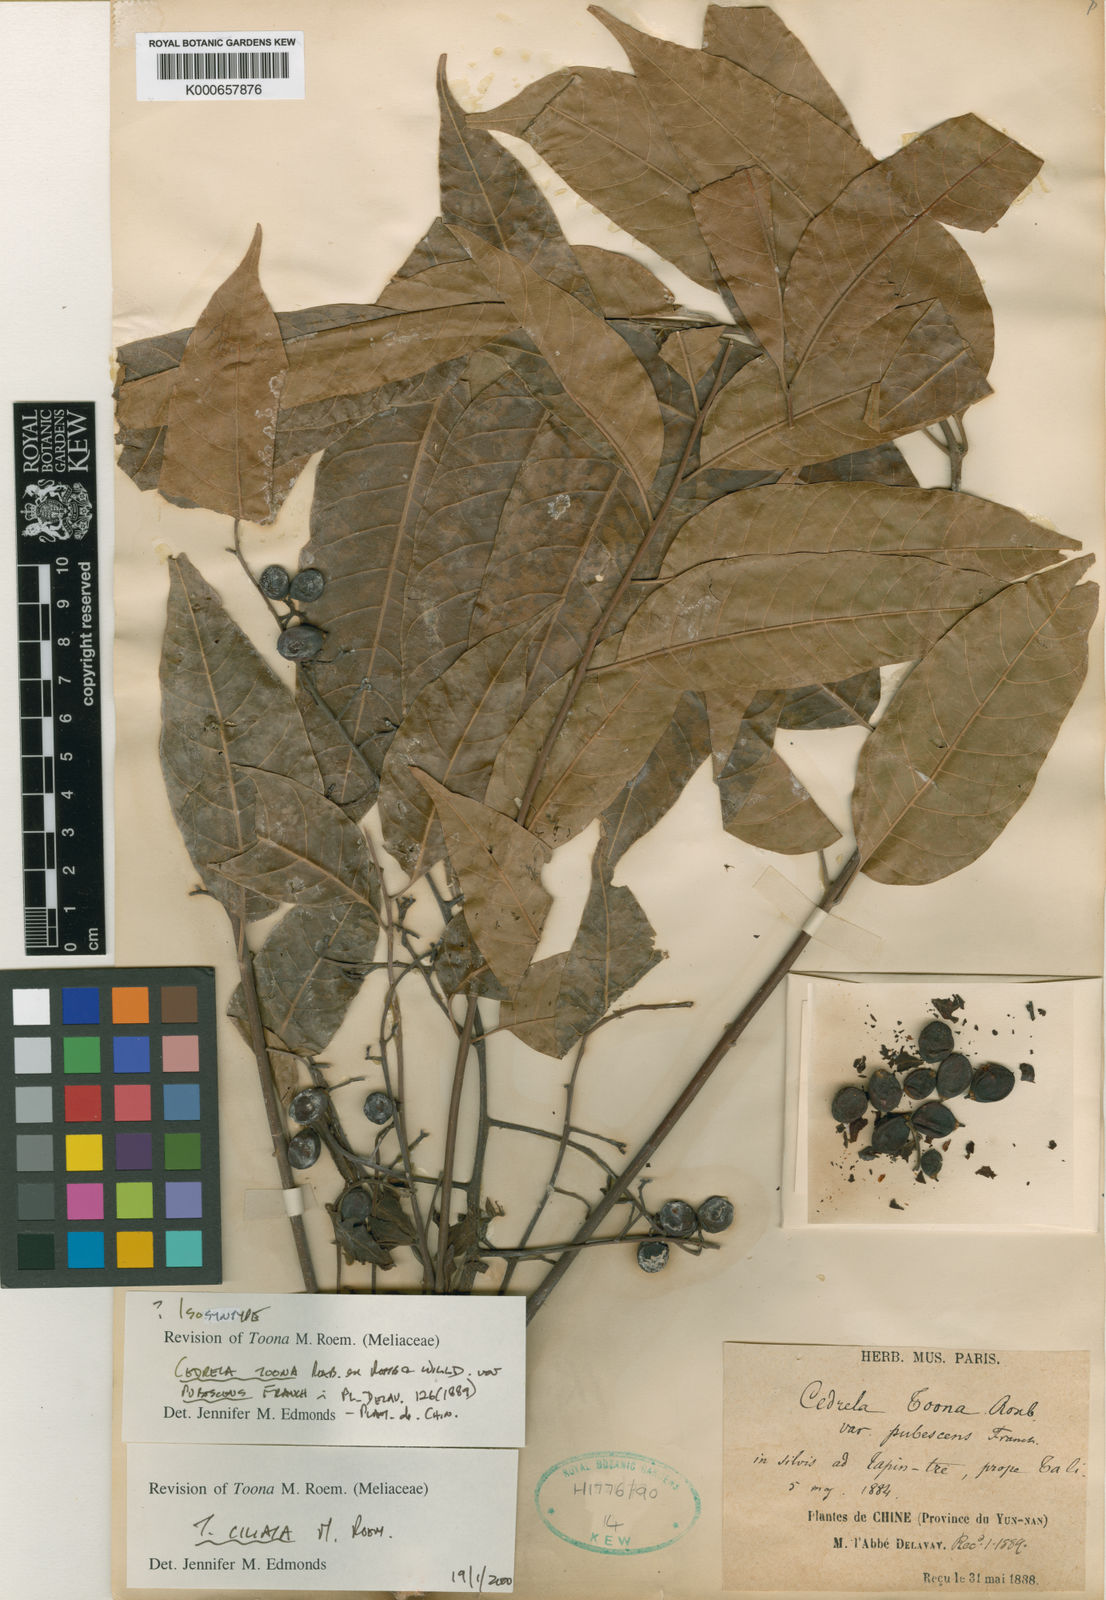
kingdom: Plantae
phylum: Tracheophyta
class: Magnoliopsida
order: Sapindales
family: Meliaceae
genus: Toona
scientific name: Toona ciliata
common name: Australian redcedar
